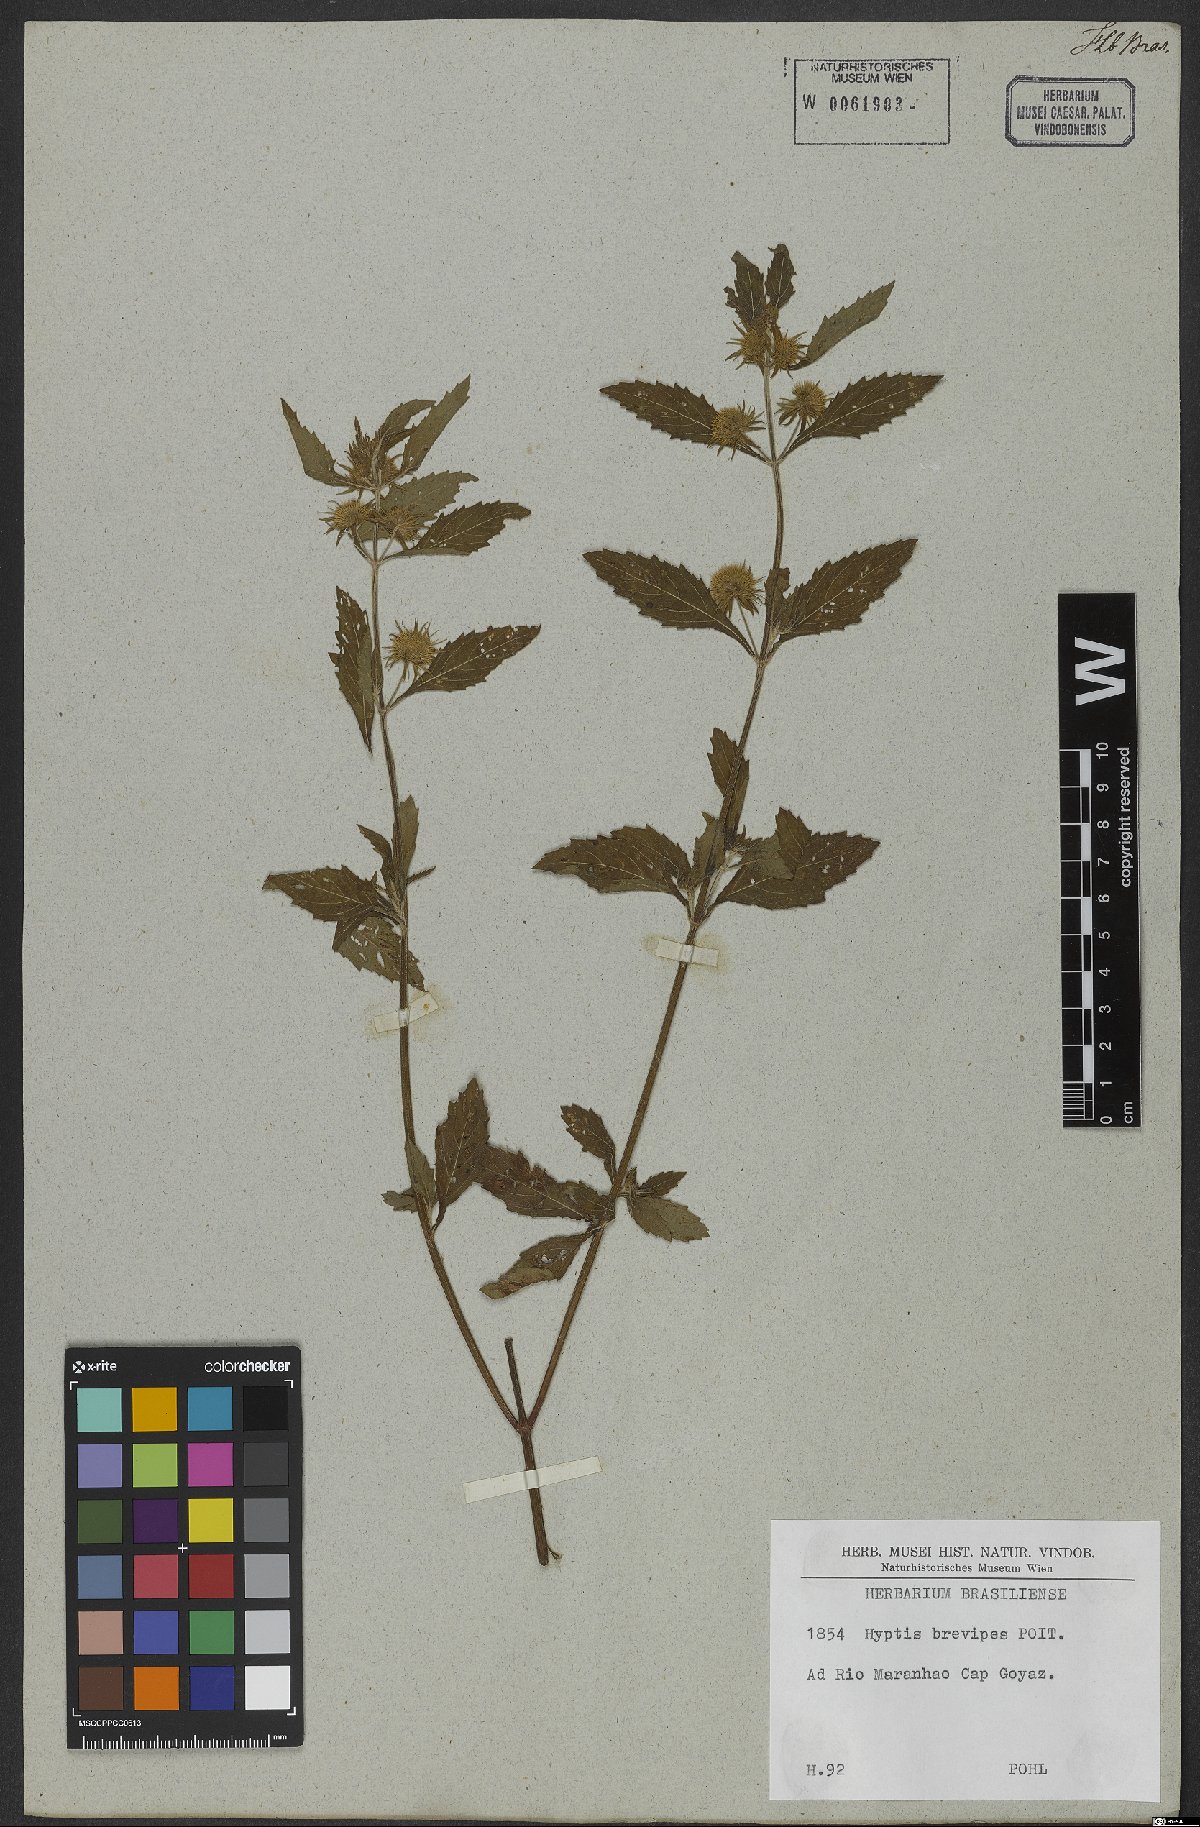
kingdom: Plantae
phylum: Tracheophyta
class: Magnoliopsida
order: Lamiales
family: Lamiaceae
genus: Hyptis
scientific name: Hyptis brevipes
